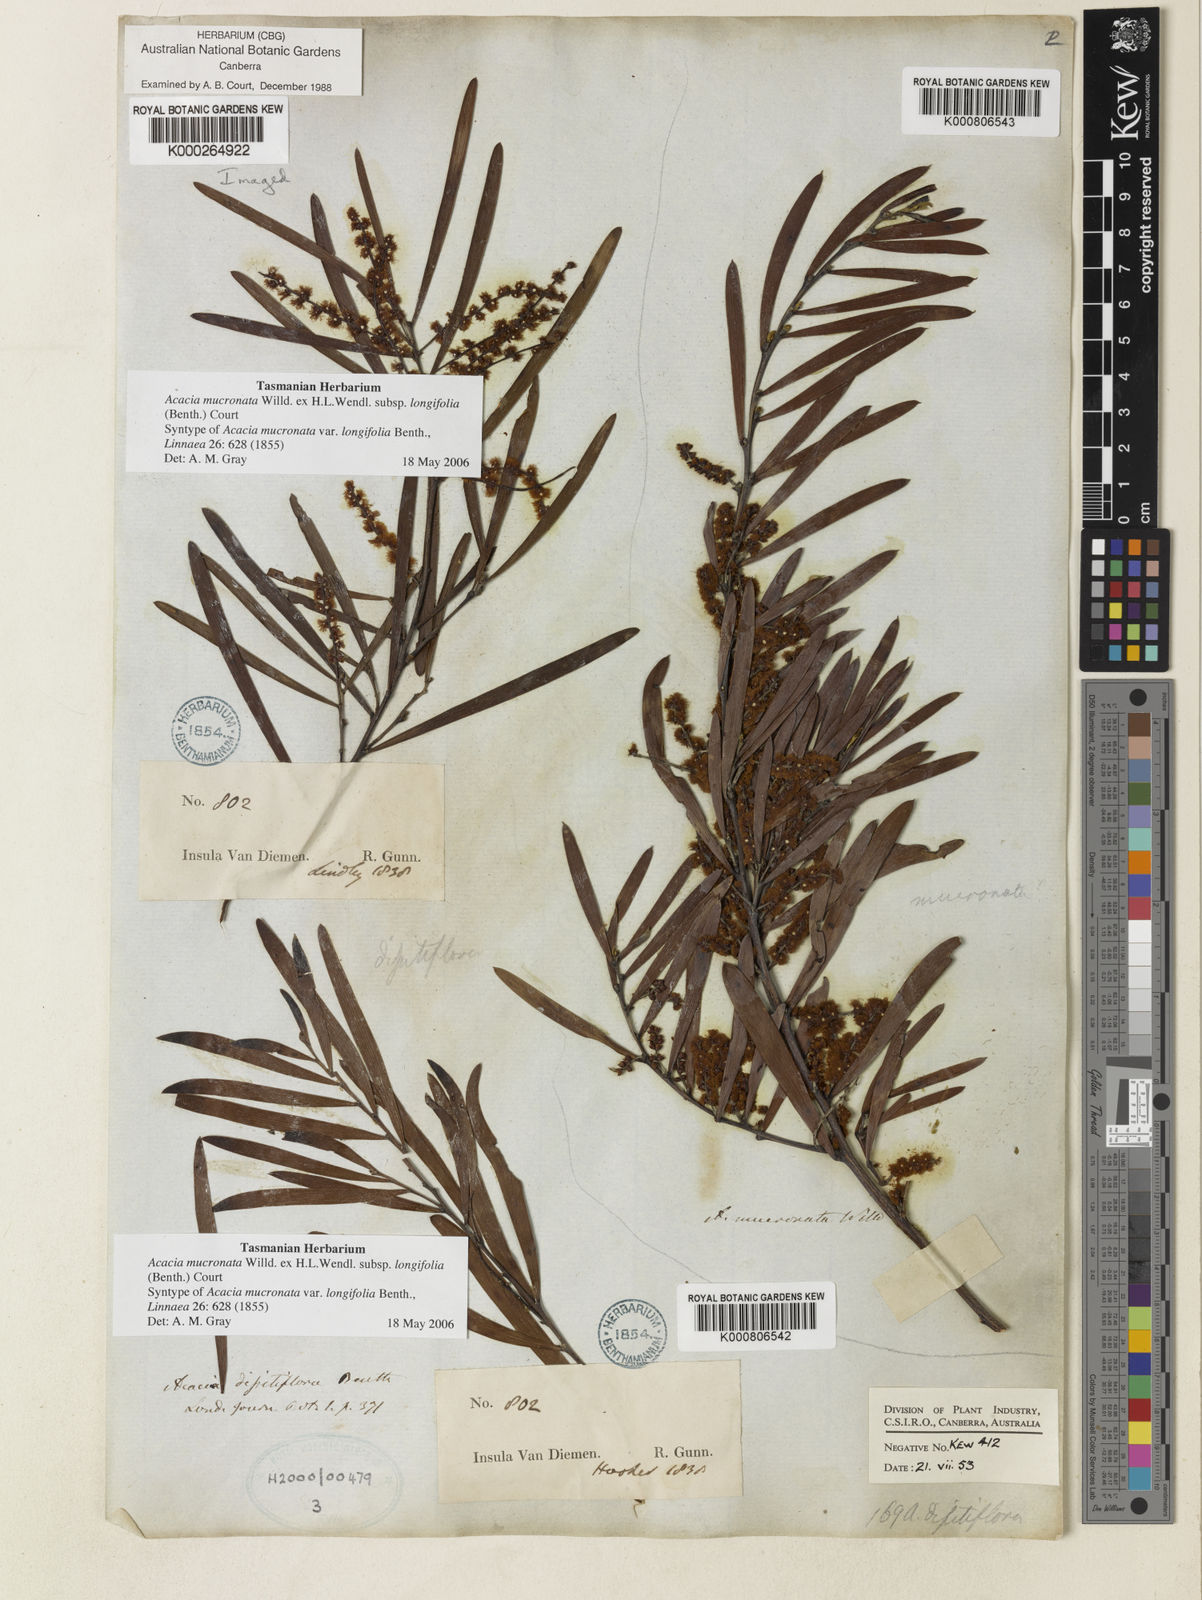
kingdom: Plantae
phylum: Tracheophyta
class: Magnoliopsida
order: Fabales
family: Fabaceae
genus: Acacia
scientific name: Acacia mucronata
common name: Variable sallow wattle
